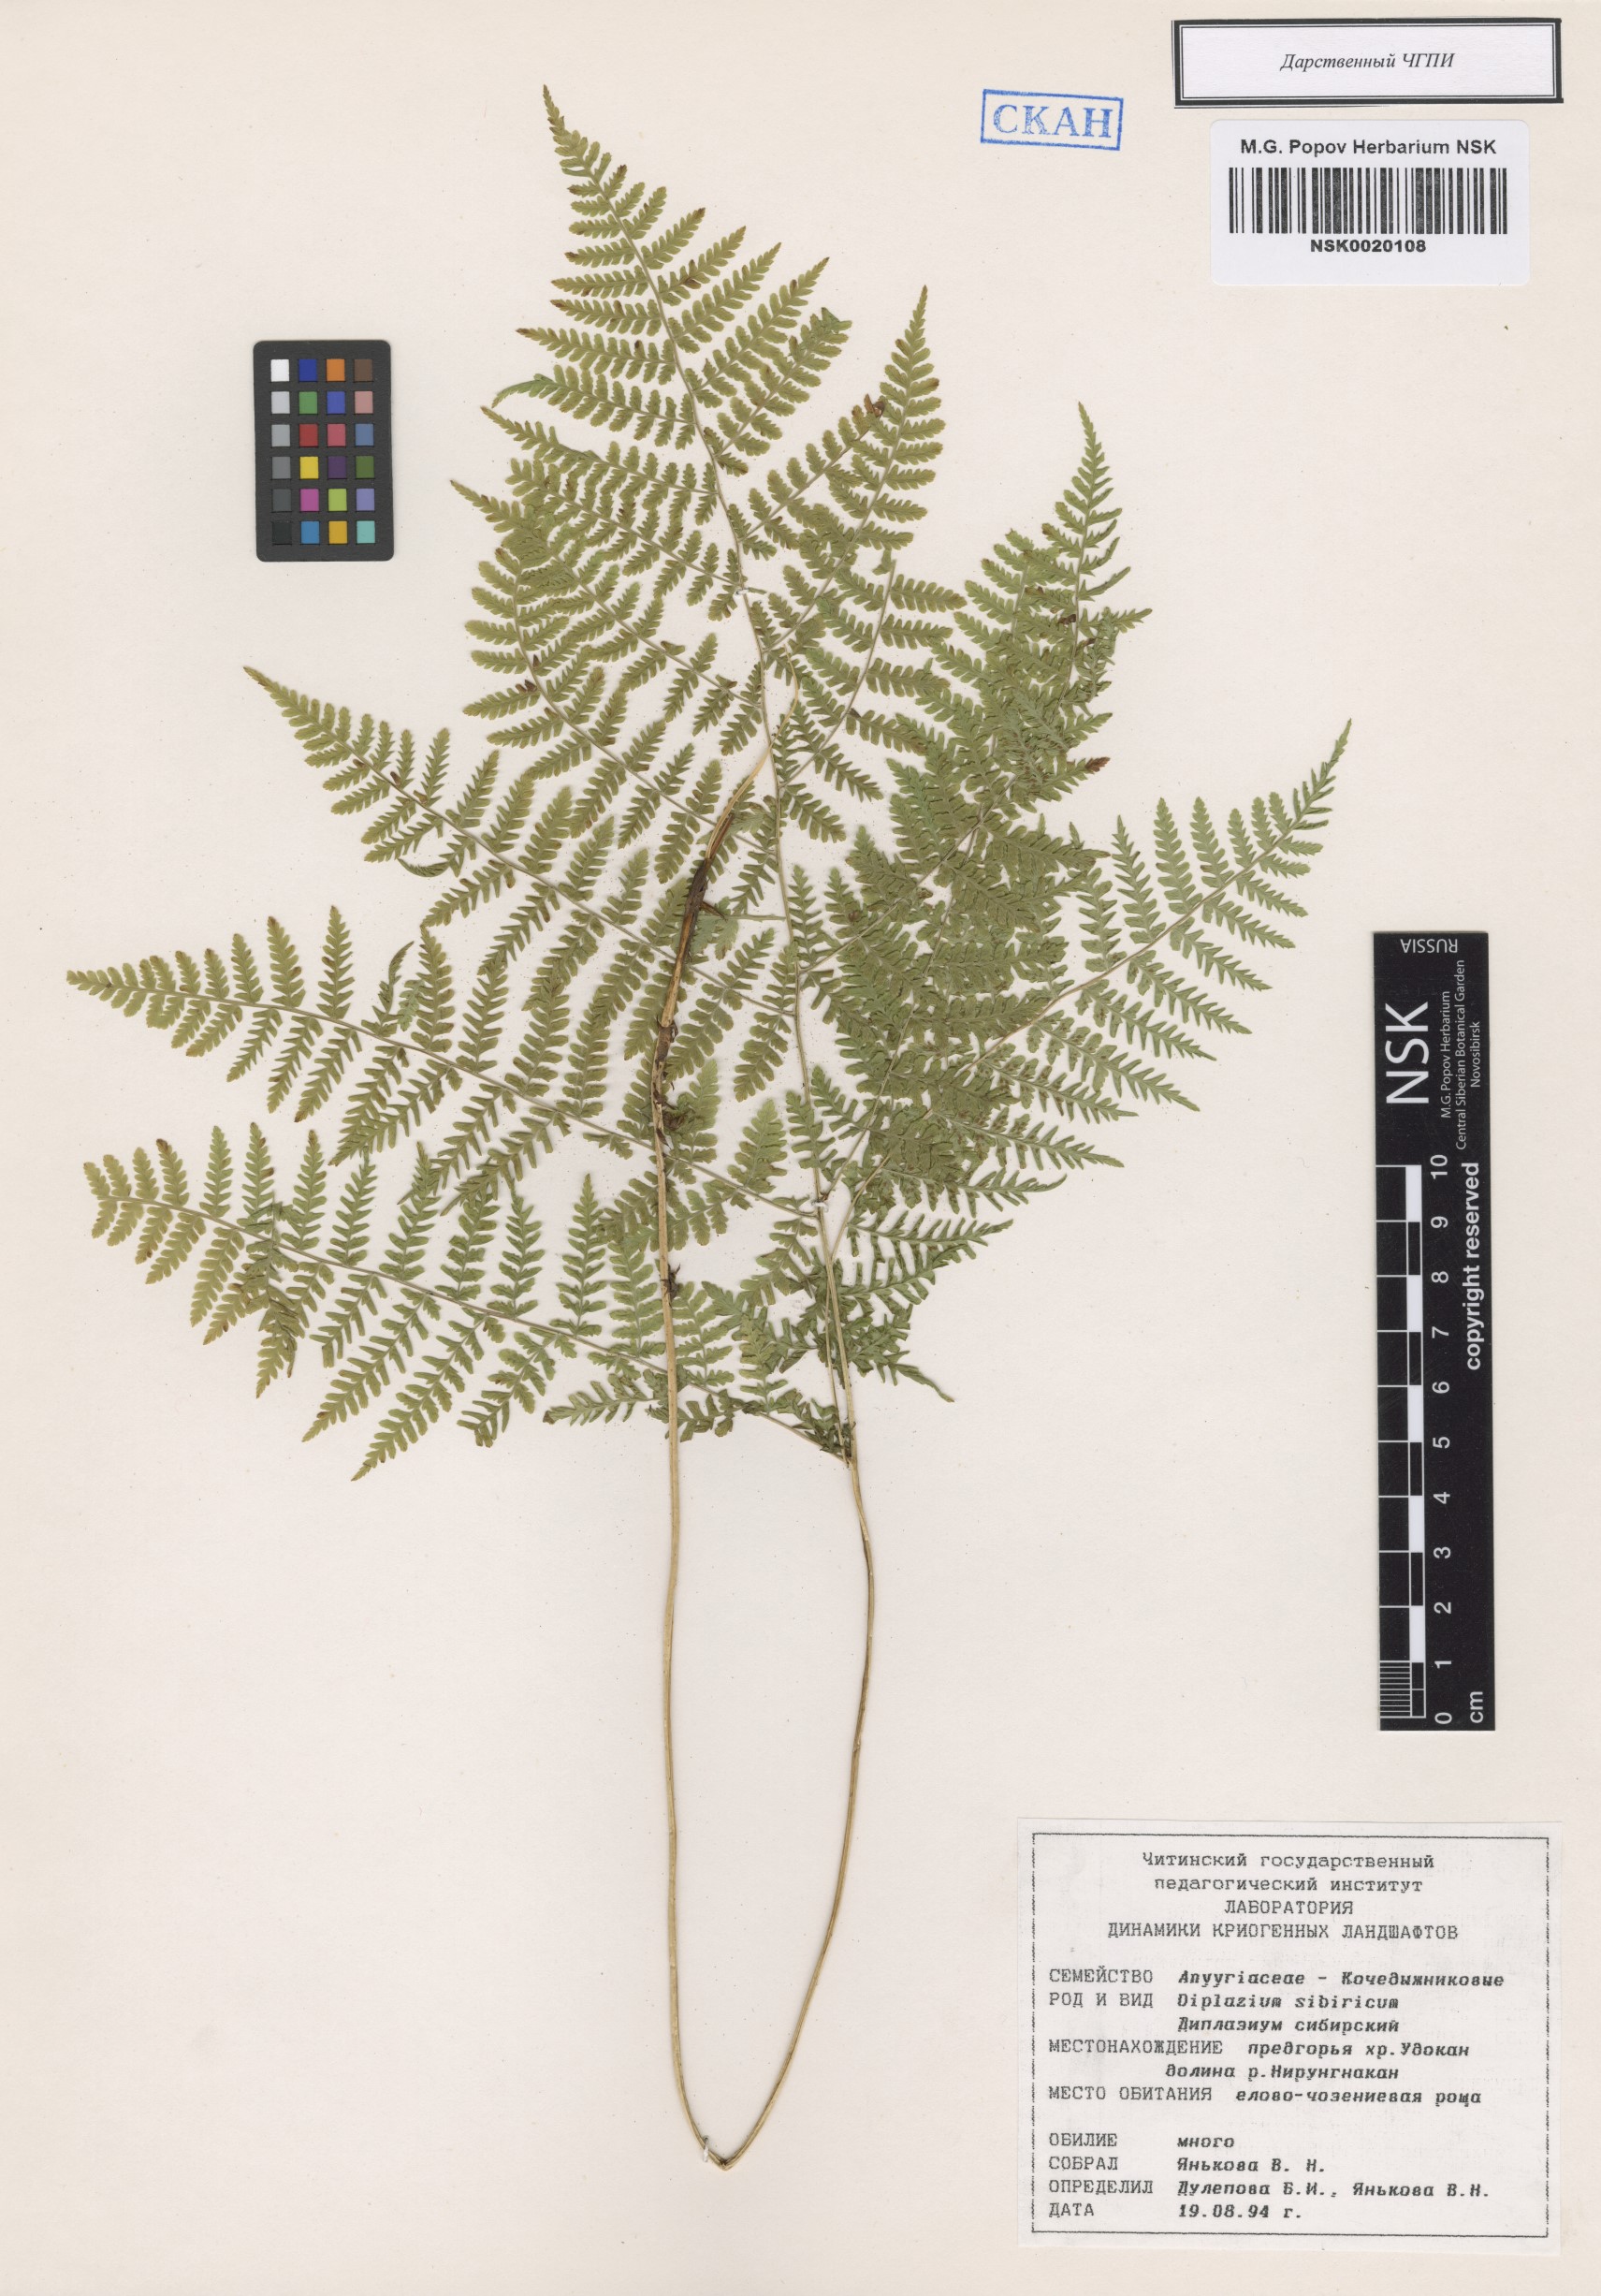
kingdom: Plantae
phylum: Tracheophyta
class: Polypodiopsida
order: Polypodiales
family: Athyriaceae
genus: Diplazium
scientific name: Diplazium sibiricum
